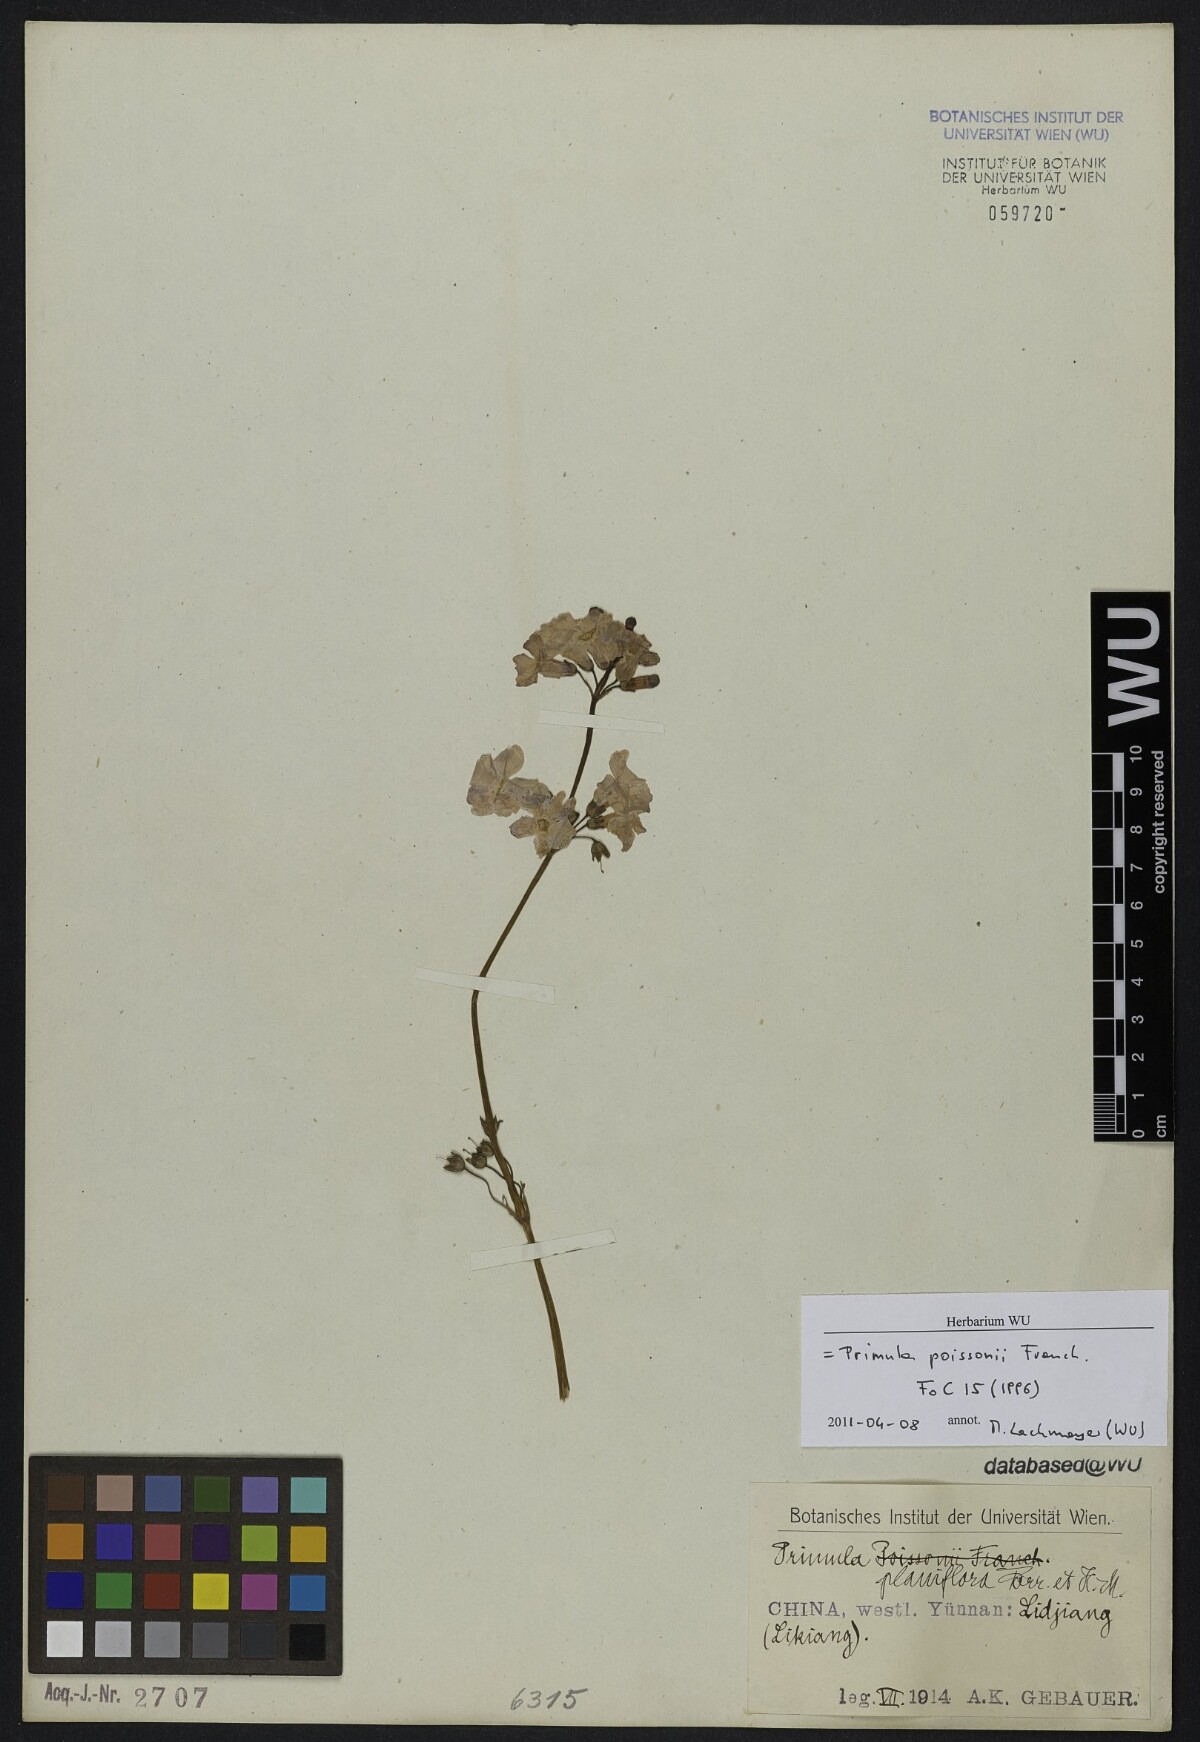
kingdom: Plantae
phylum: Tracheophyta
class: Magnoliopsida
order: Ericales
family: Primulaceae
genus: Primula
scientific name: Primula poissonii
